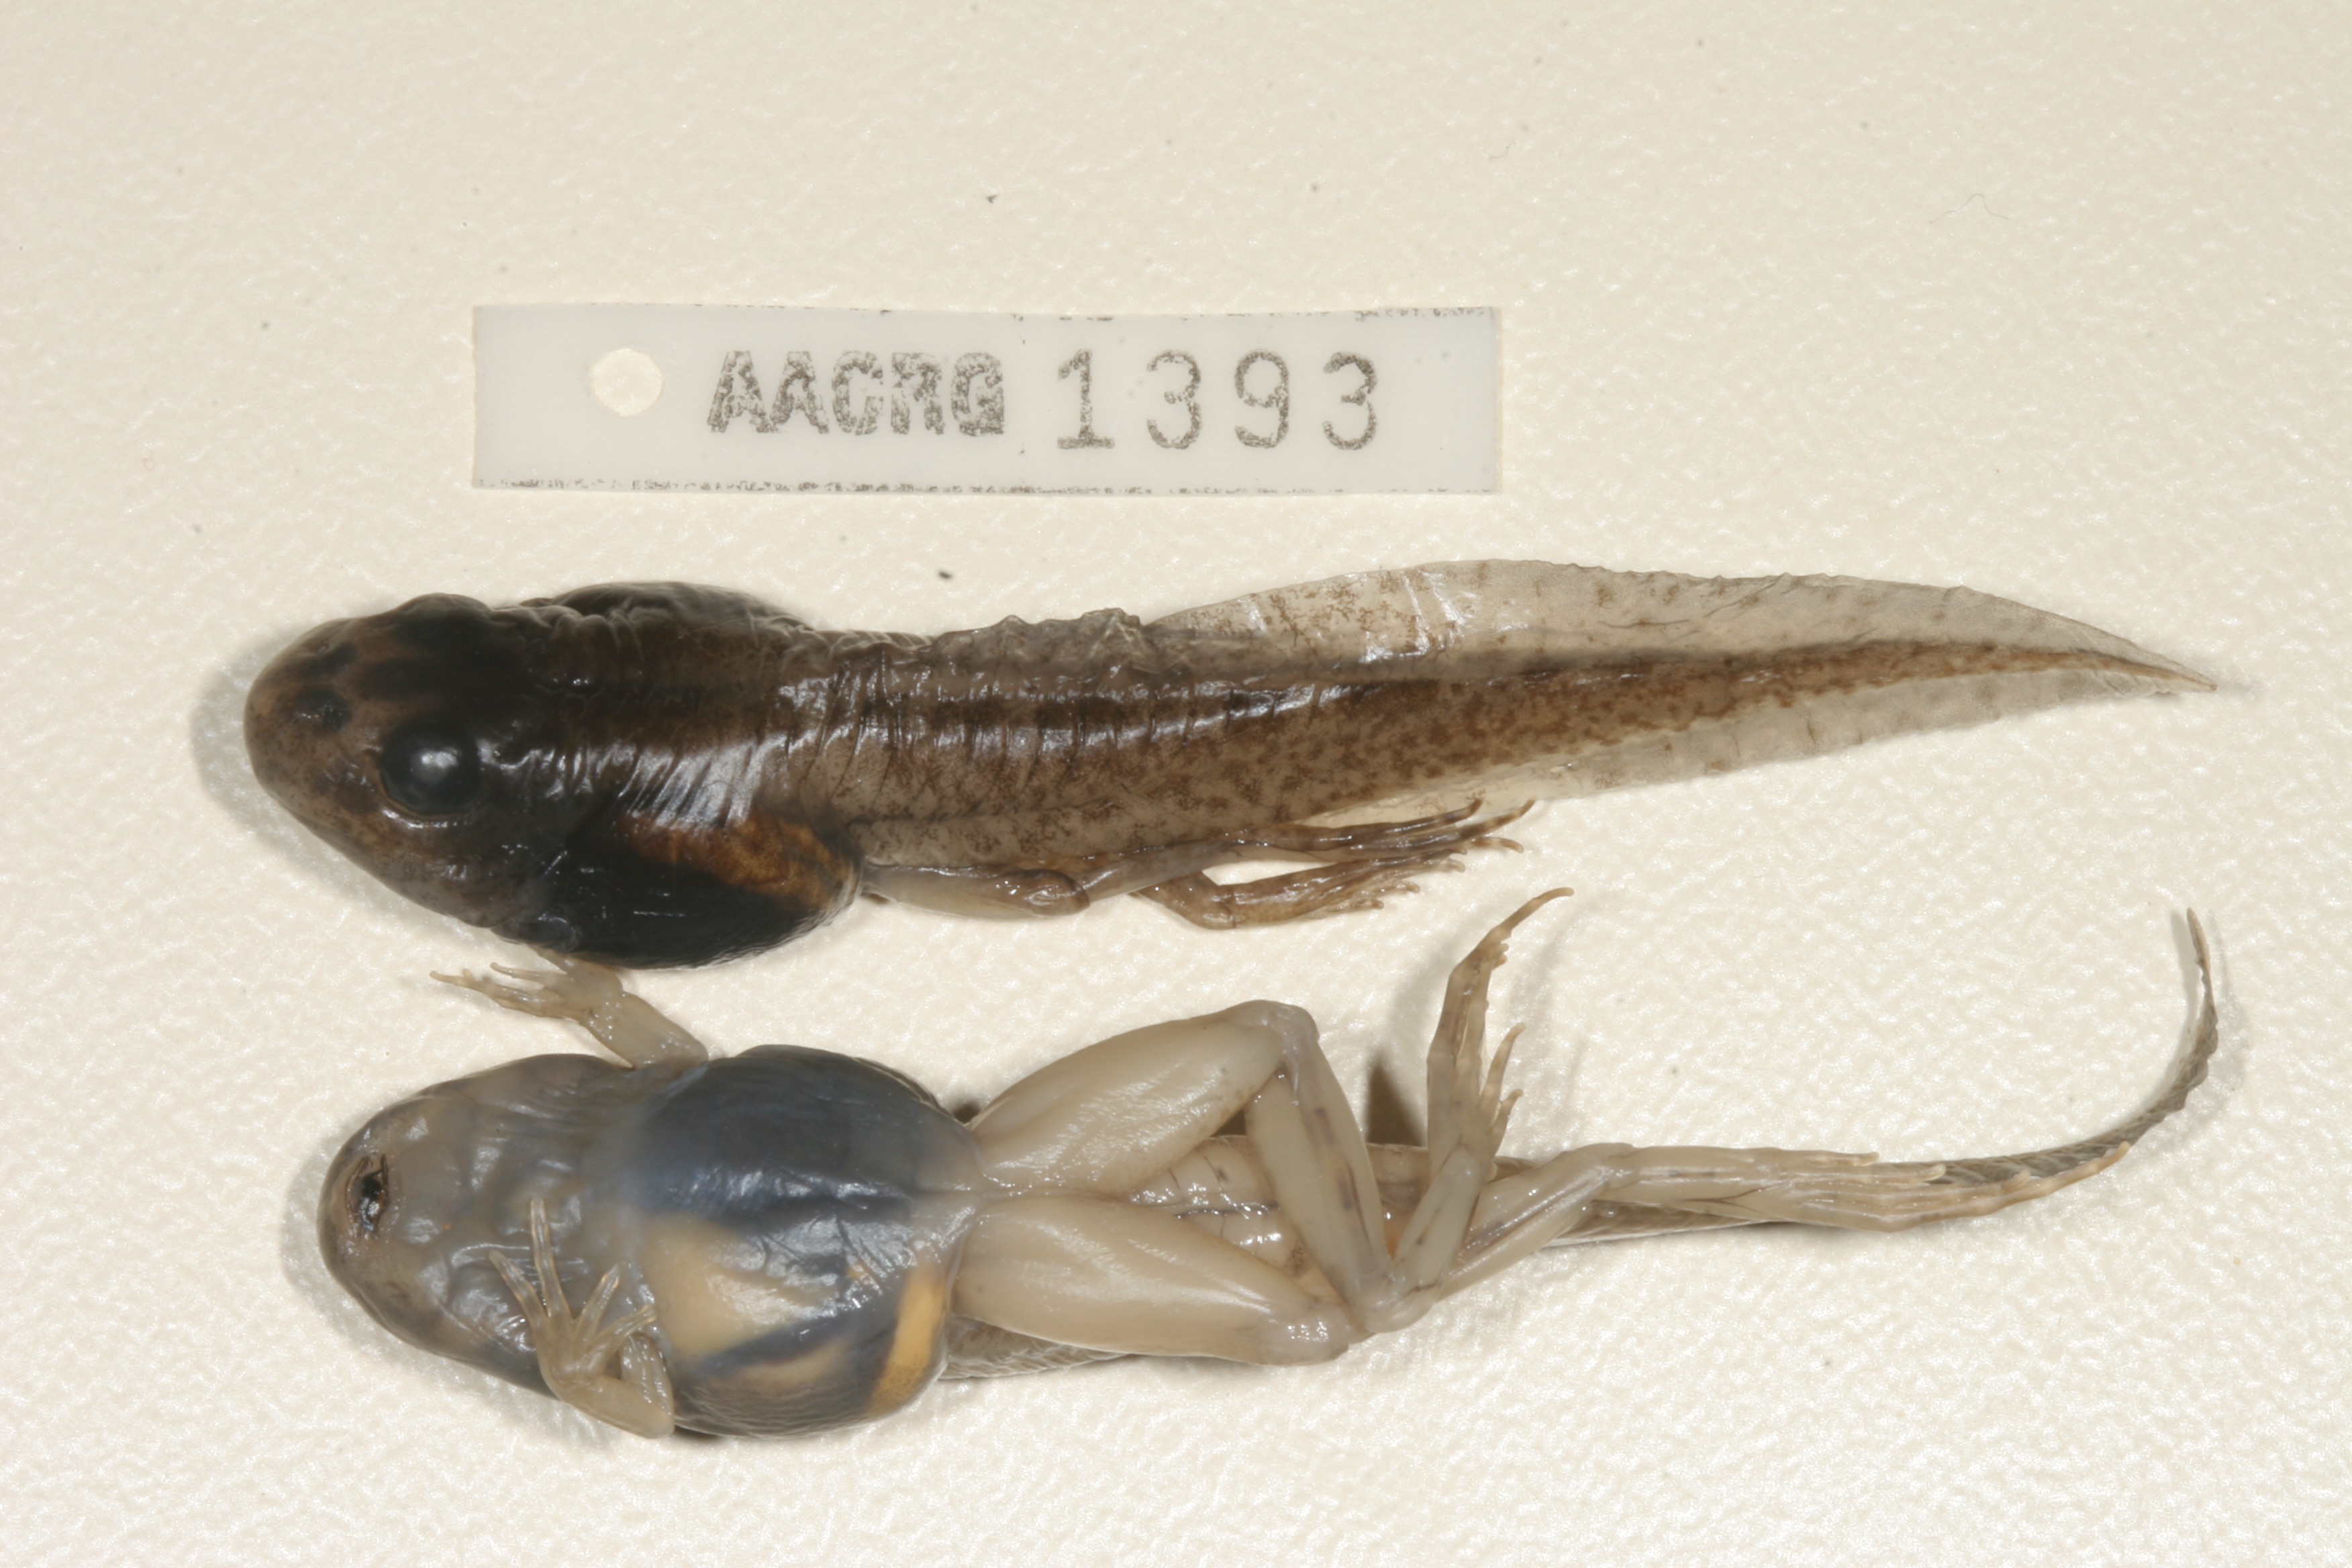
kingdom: Animalia
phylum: Chordata
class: Amphibia
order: Anura
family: Pyxicephalidae
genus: Amietia
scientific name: Amietia angolensis
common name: Dusky-throated frog
